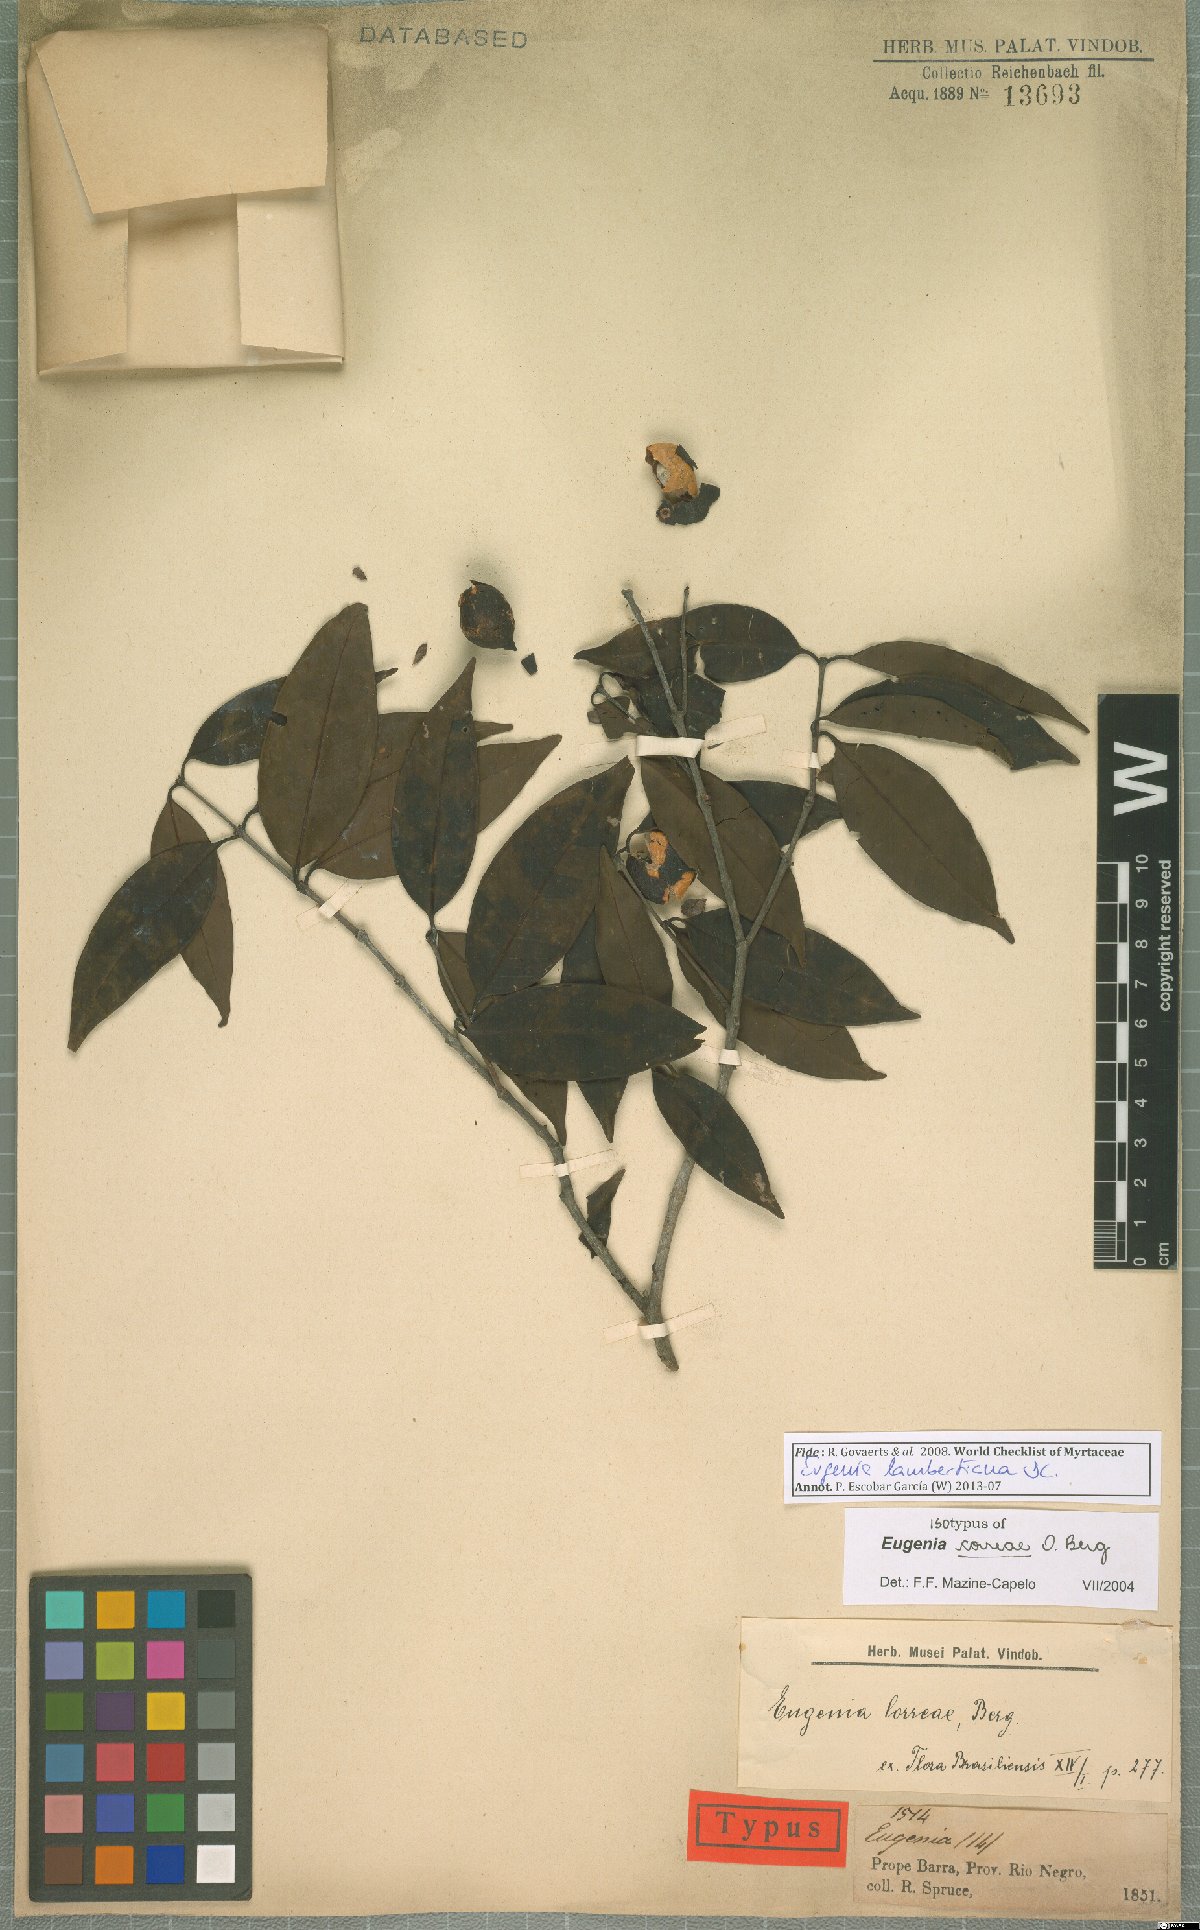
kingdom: Plantae
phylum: Tracheophyta
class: Magnoliopsida
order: Myrtales
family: Myrtaceae
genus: Eugenia
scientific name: Eugenia lambertiana
